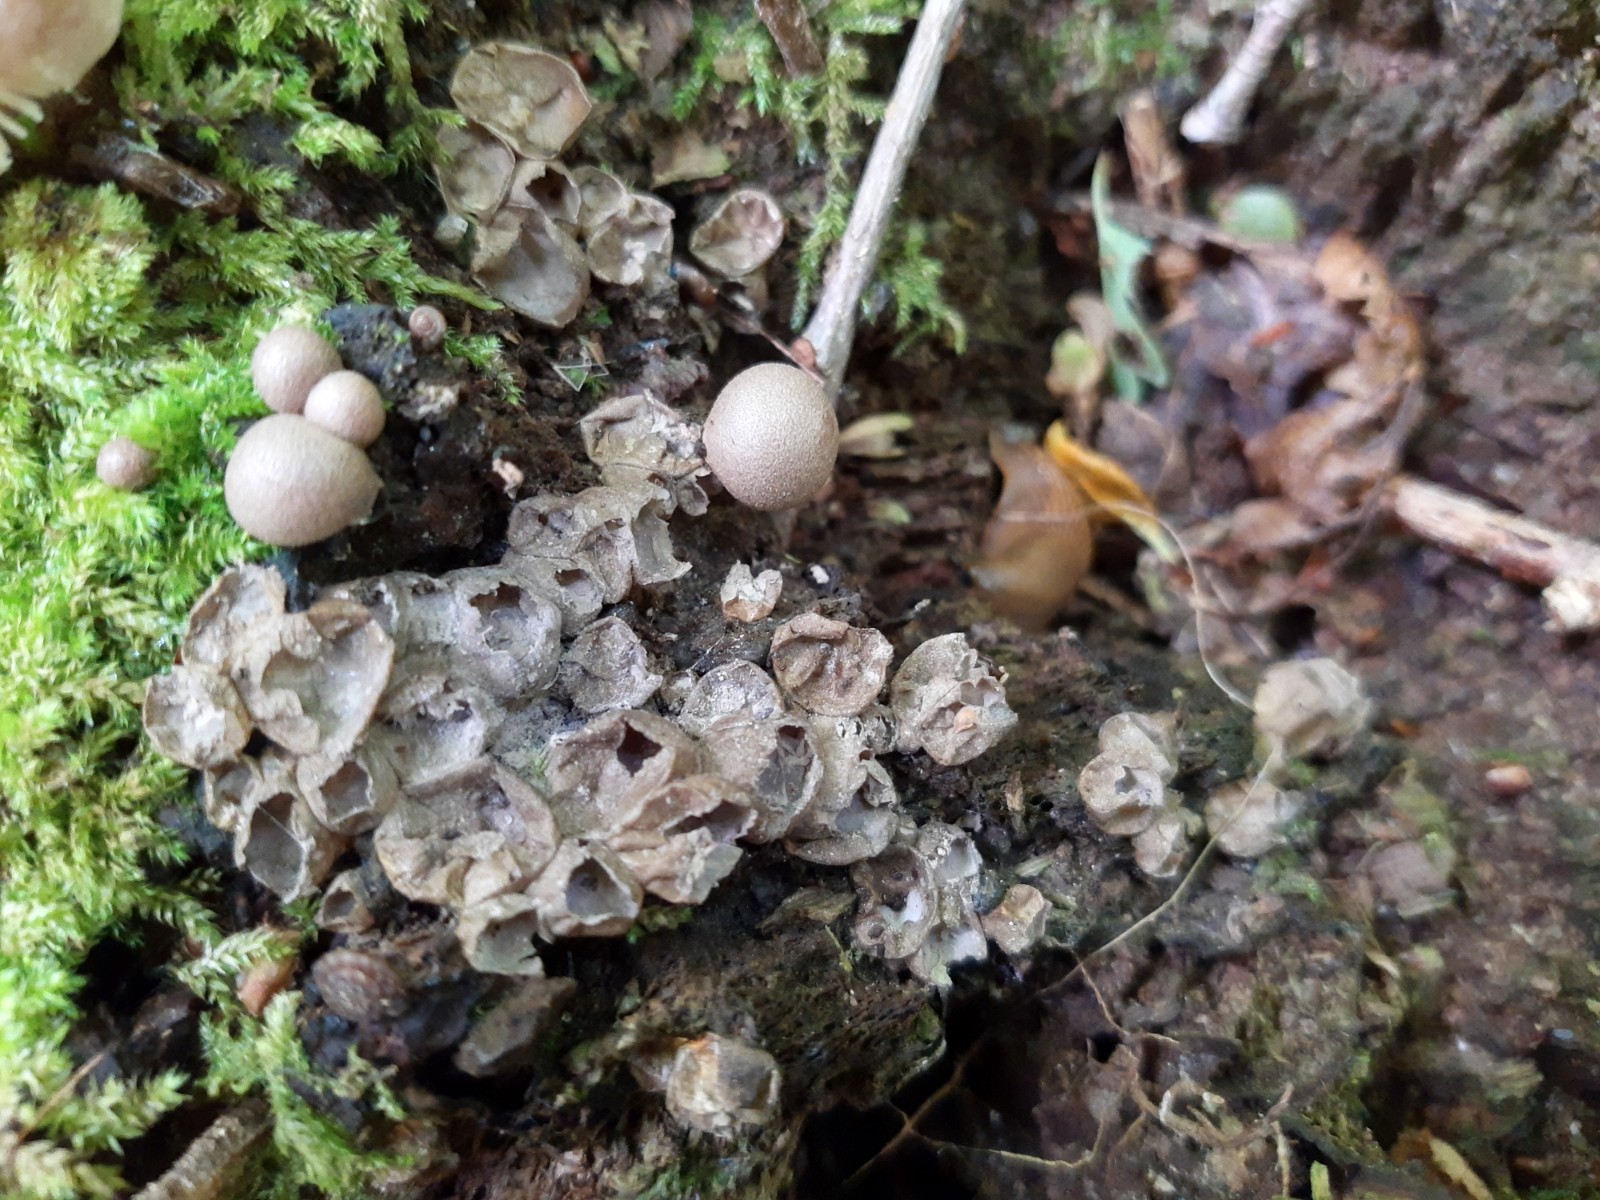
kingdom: Protozoa
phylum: Mycetozoa
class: Myxomycetes
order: Cribrariales
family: Tubiferaceae
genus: Lycogala
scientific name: Lycogala epidendrum
